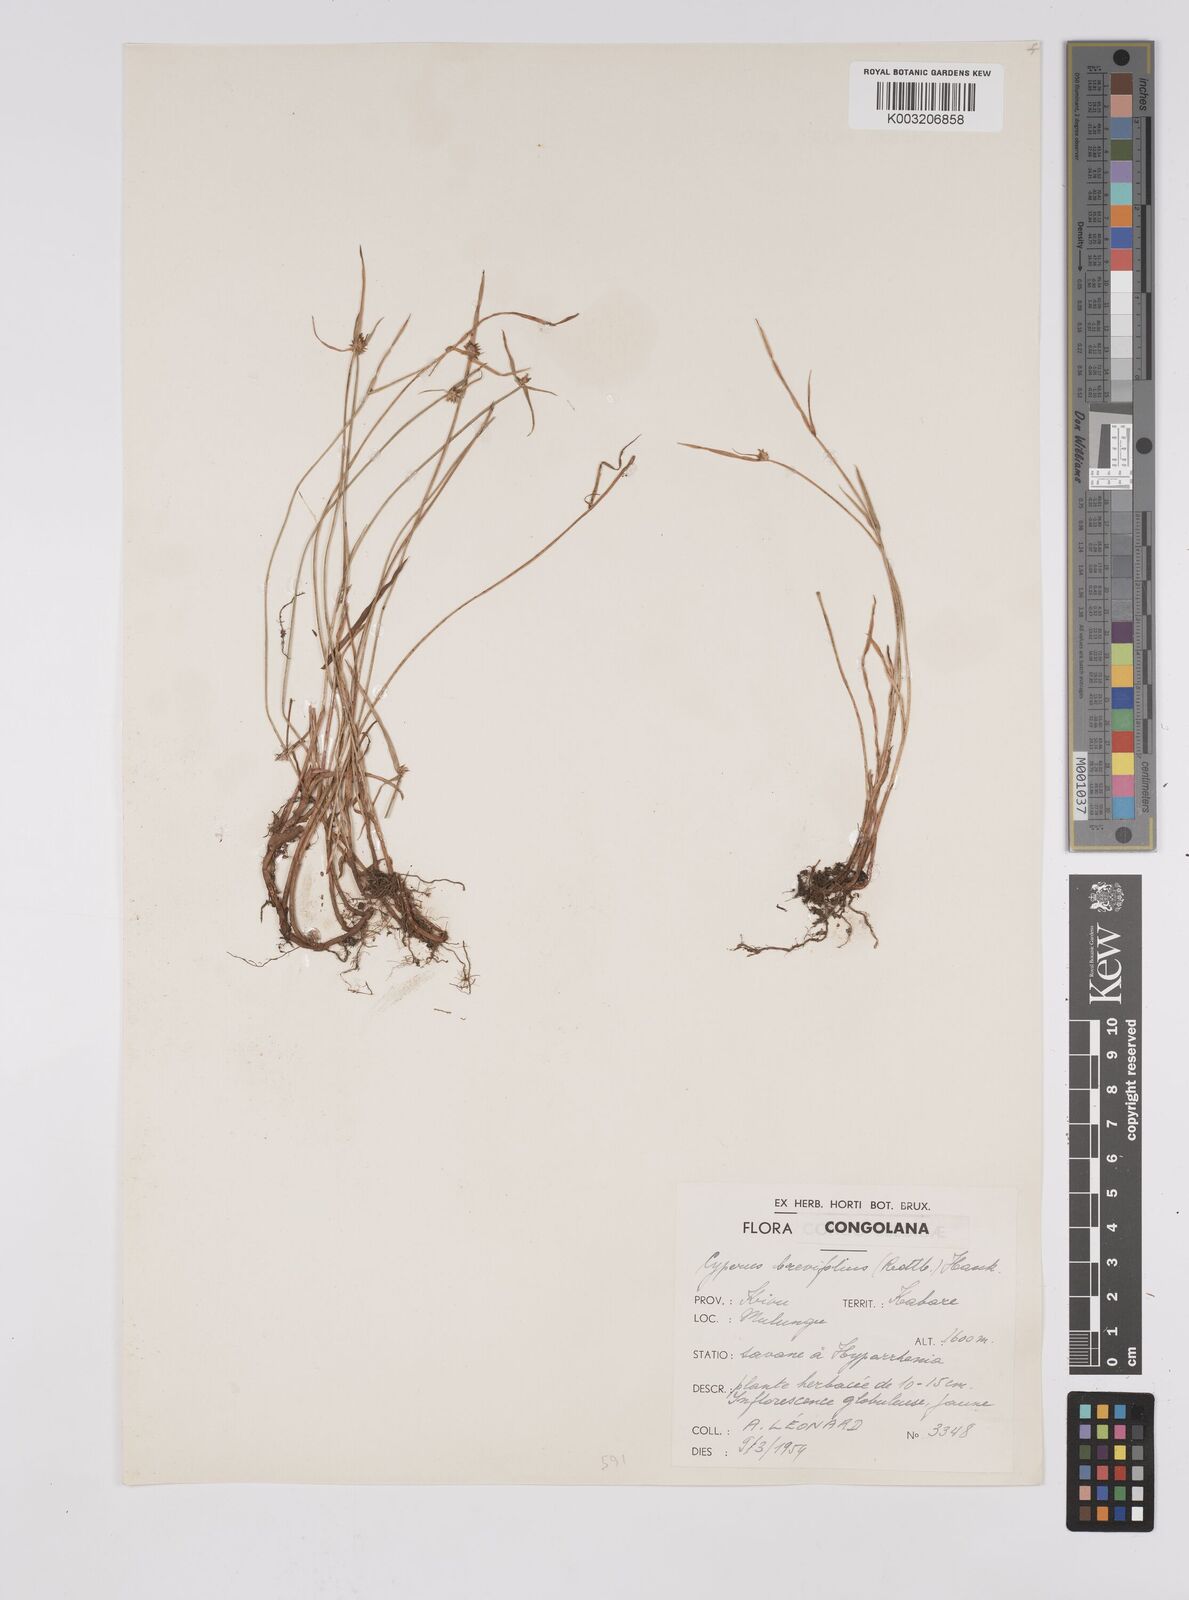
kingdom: Plantae
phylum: Tracheophyta
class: Liliopsida
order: Poales
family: Cyperaceae
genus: Cyperus
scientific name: Cyperus erectus
